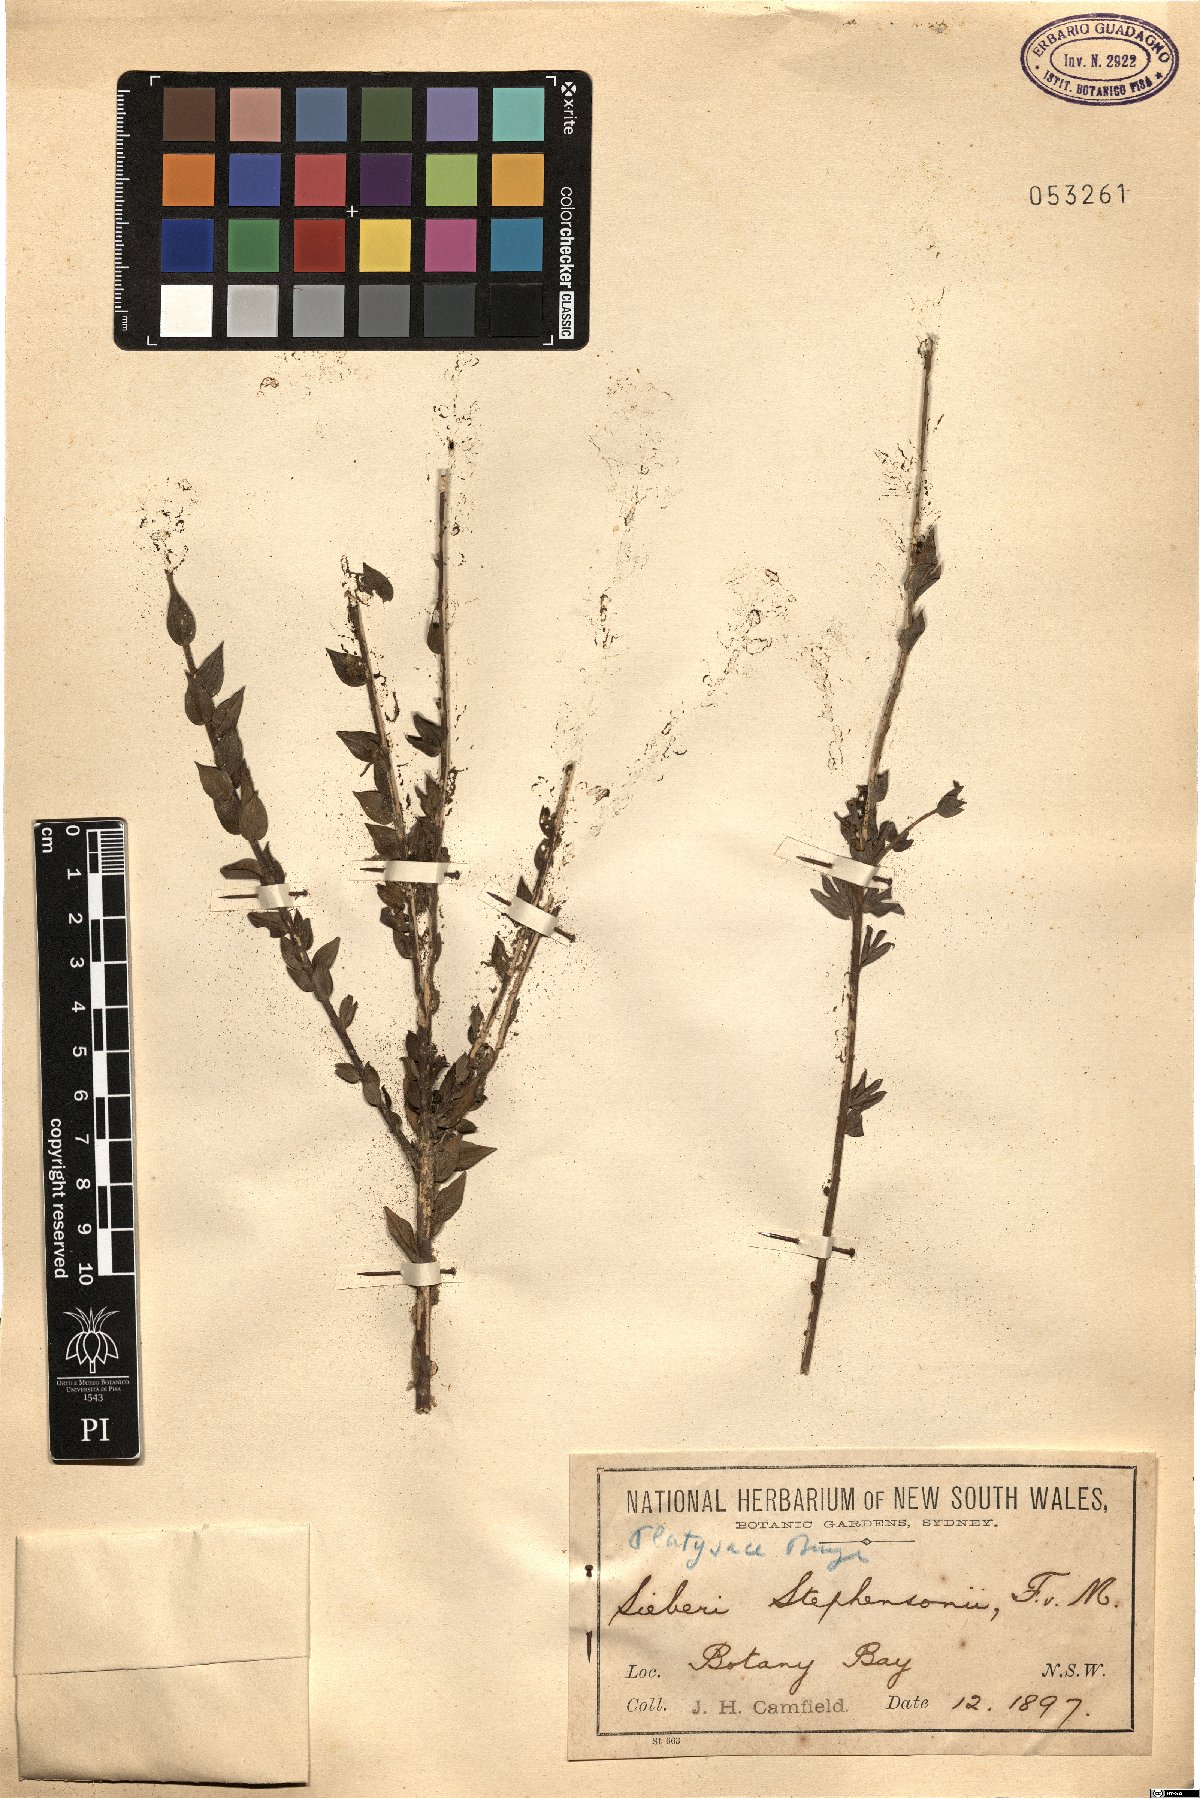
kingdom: Plantae
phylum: Tracheophyta
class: Magnoliopsida
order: Apiales
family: Apiaceae
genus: Platysace
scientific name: Platysace stephensonii
